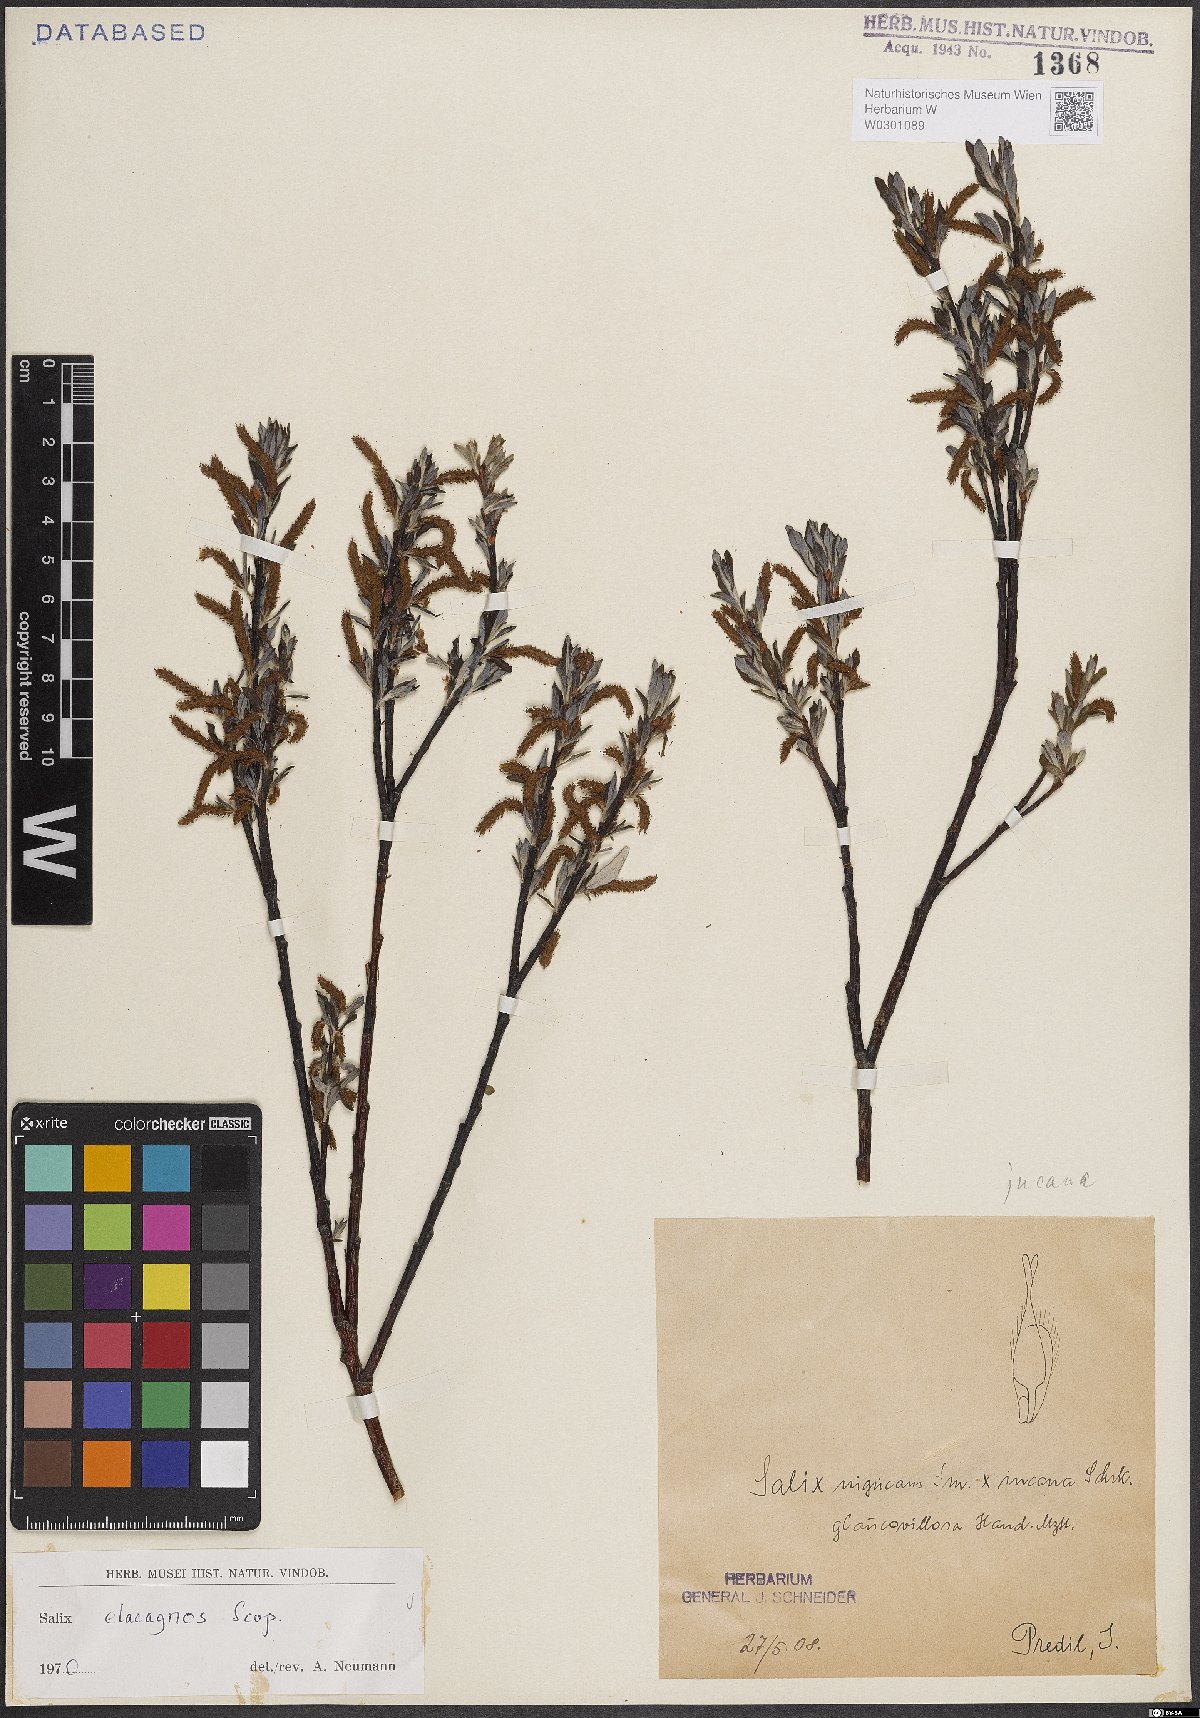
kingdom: Plantae
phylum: Tracheophyta
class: Magnoliopsida
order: Malpighiales
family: Salicaceae
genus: Salix
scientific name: Salix eleagnos
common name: Elaeagnus willow
